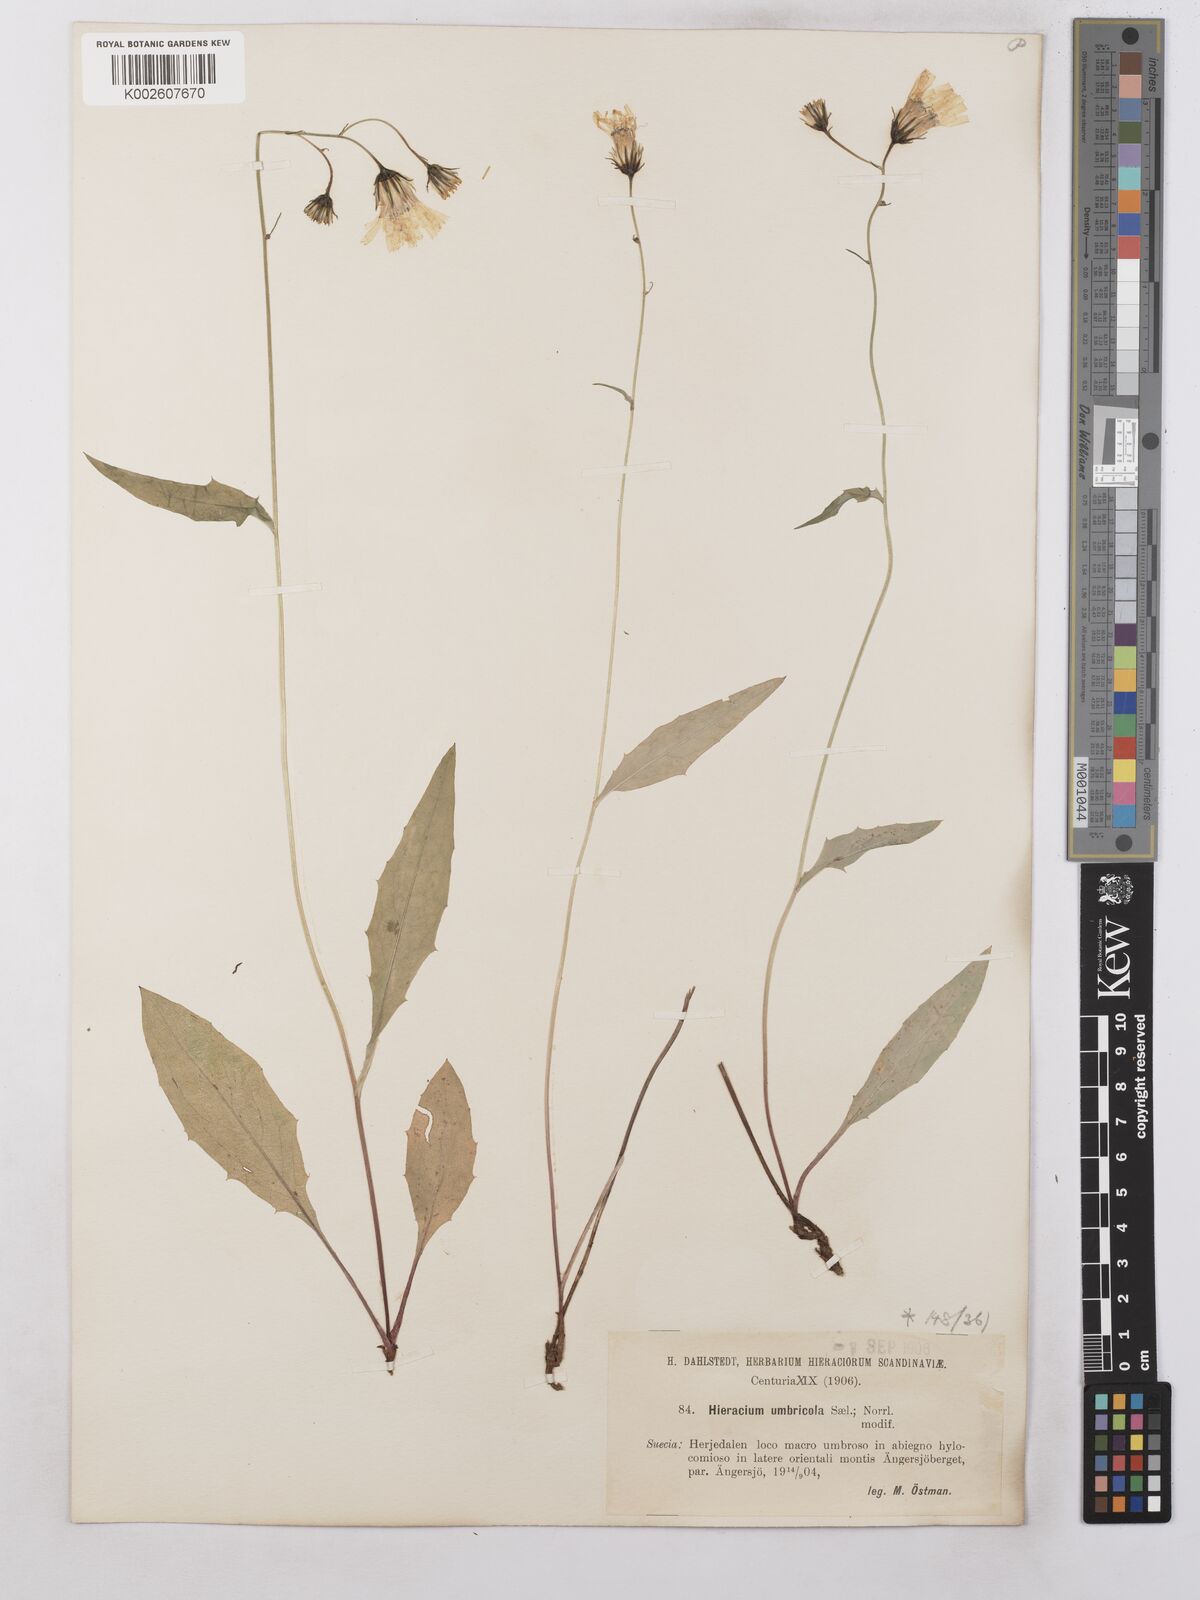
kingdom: Plantae
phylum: Tracheophyta
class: Magnoliopsida
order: Asterales
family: Asteraceae
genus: Hieracium
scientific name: Hieracium subramosum
